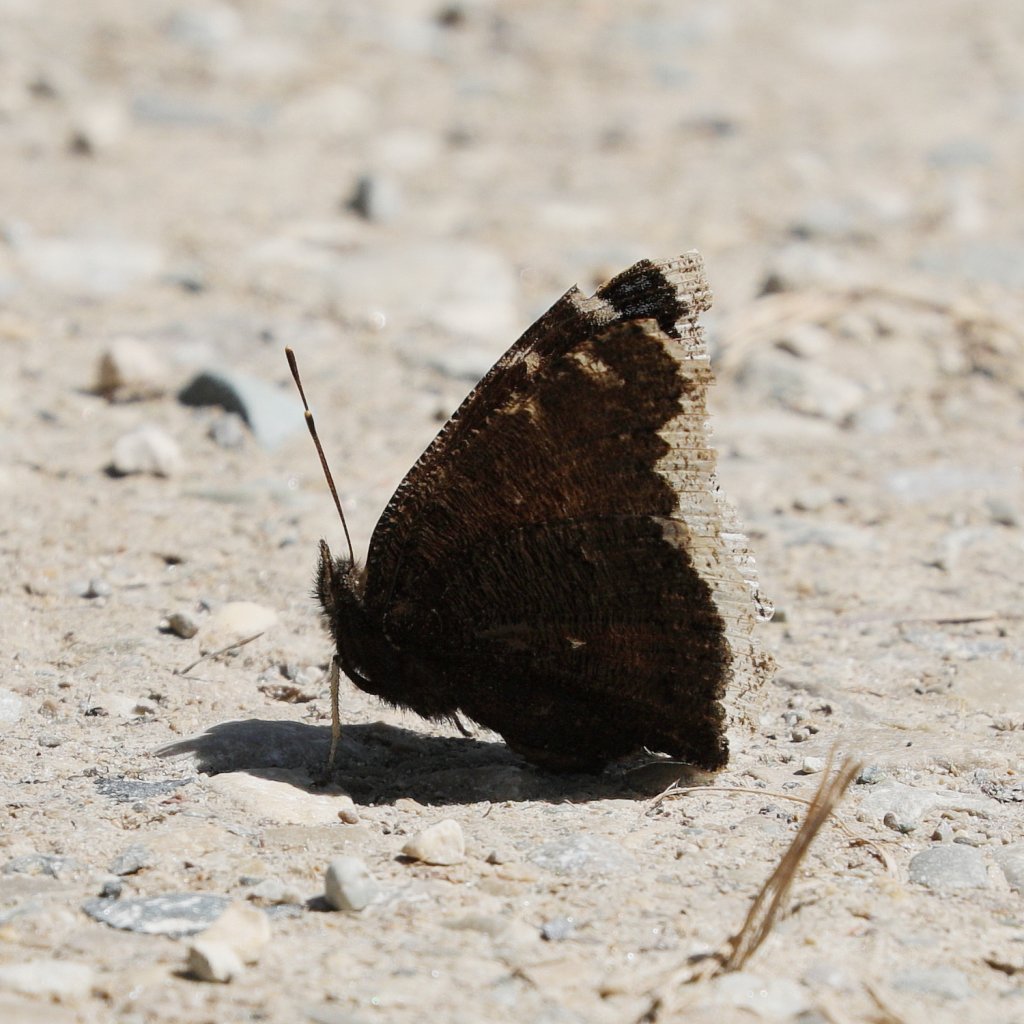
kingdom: Animalia
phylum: Arthropoda
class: Insecta
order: Lepidoptera
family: Nymphalidae
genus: Nymphalis
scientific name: Nymphalis antiopa
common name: Mourning Cloak
